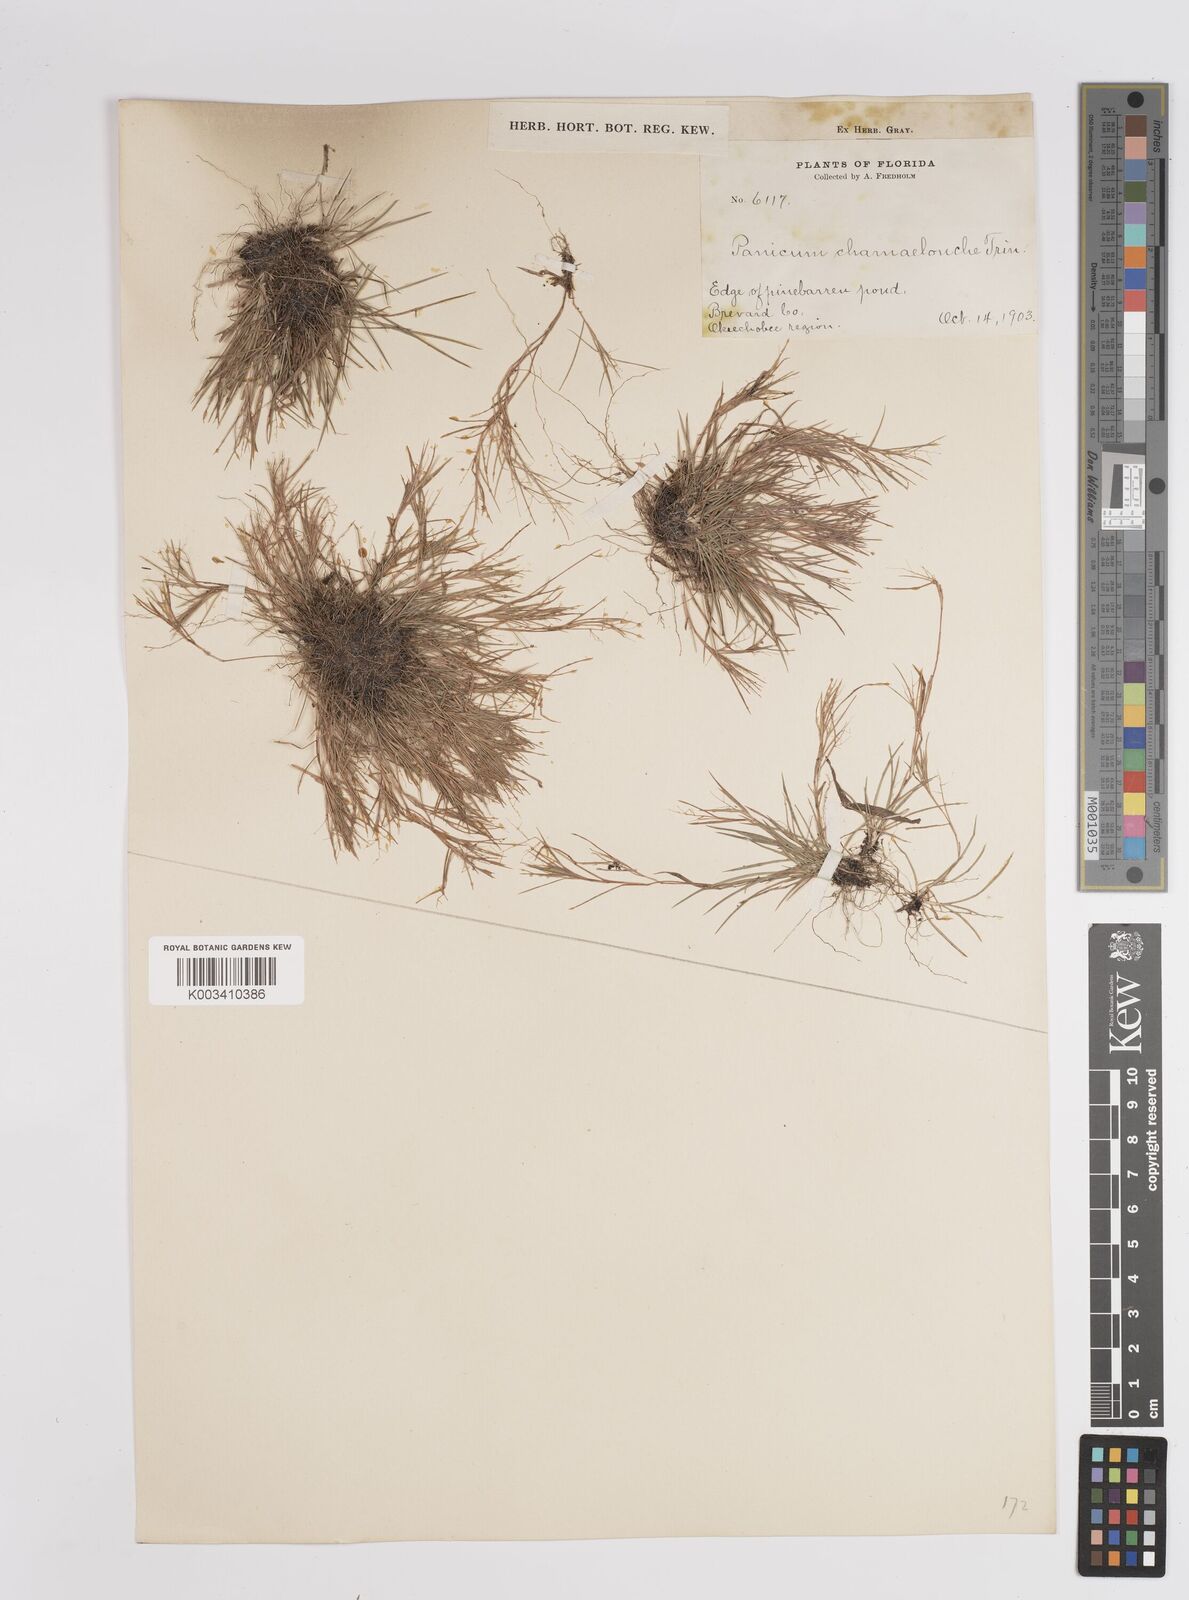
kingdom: Plantae
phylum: Tracheophyta
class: Liliopsida
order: Poales
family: Poaceae
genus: Dichanthelium
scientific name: Dichanthelium chamaelonche
